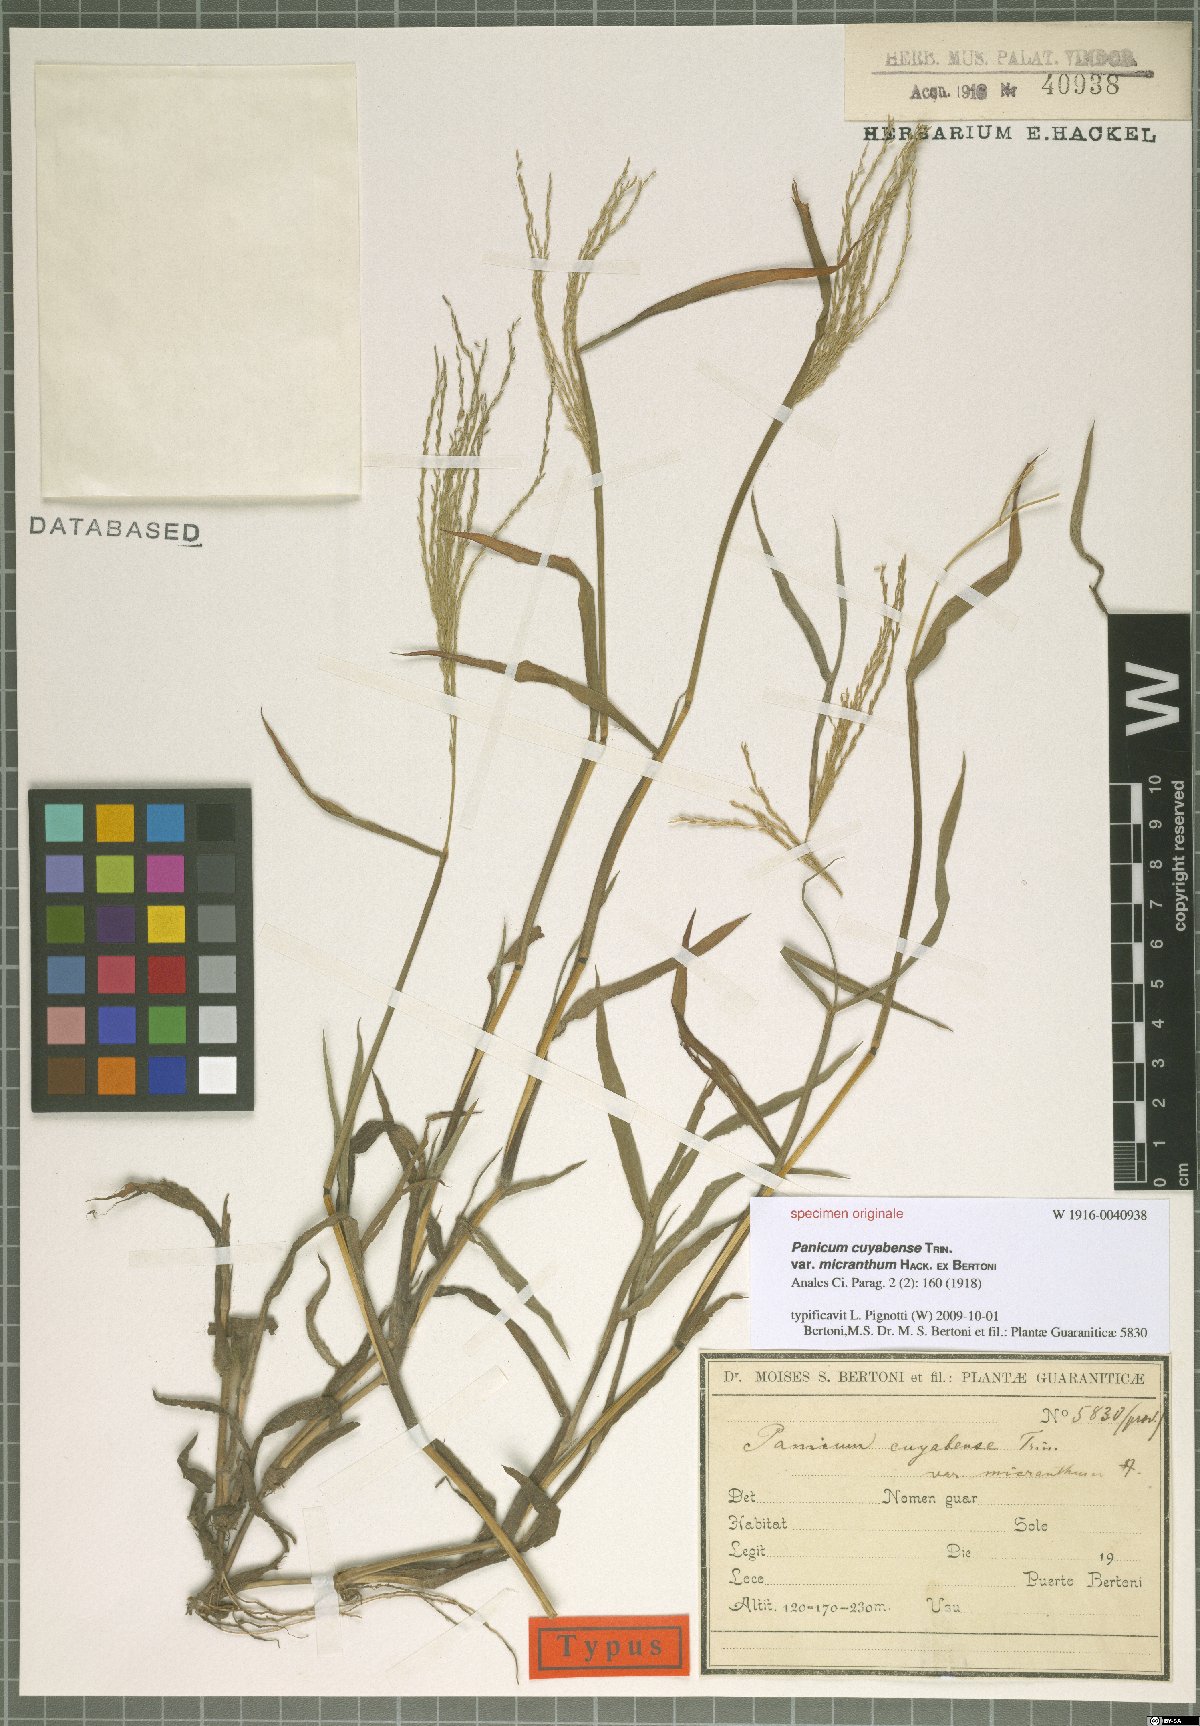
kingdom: Plantae
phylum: Tracheophyta
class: Liliopsida
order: Poales
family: Poaceae
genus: Digitaria
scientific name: Digitaria cuyabensis
